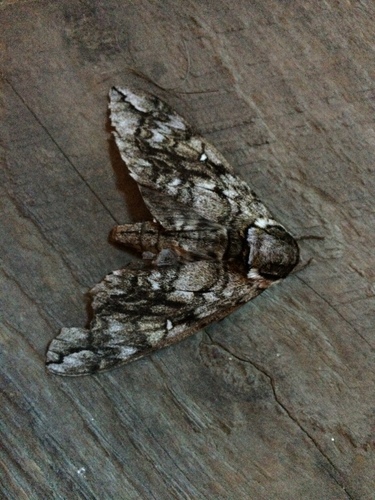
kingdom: Animalia
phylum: Arthropoda
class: Insecta
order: Lepidoptera
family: Sphingidae
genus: Ceratomia
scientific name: Ceratomia undulosa
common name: Waved sphinx
